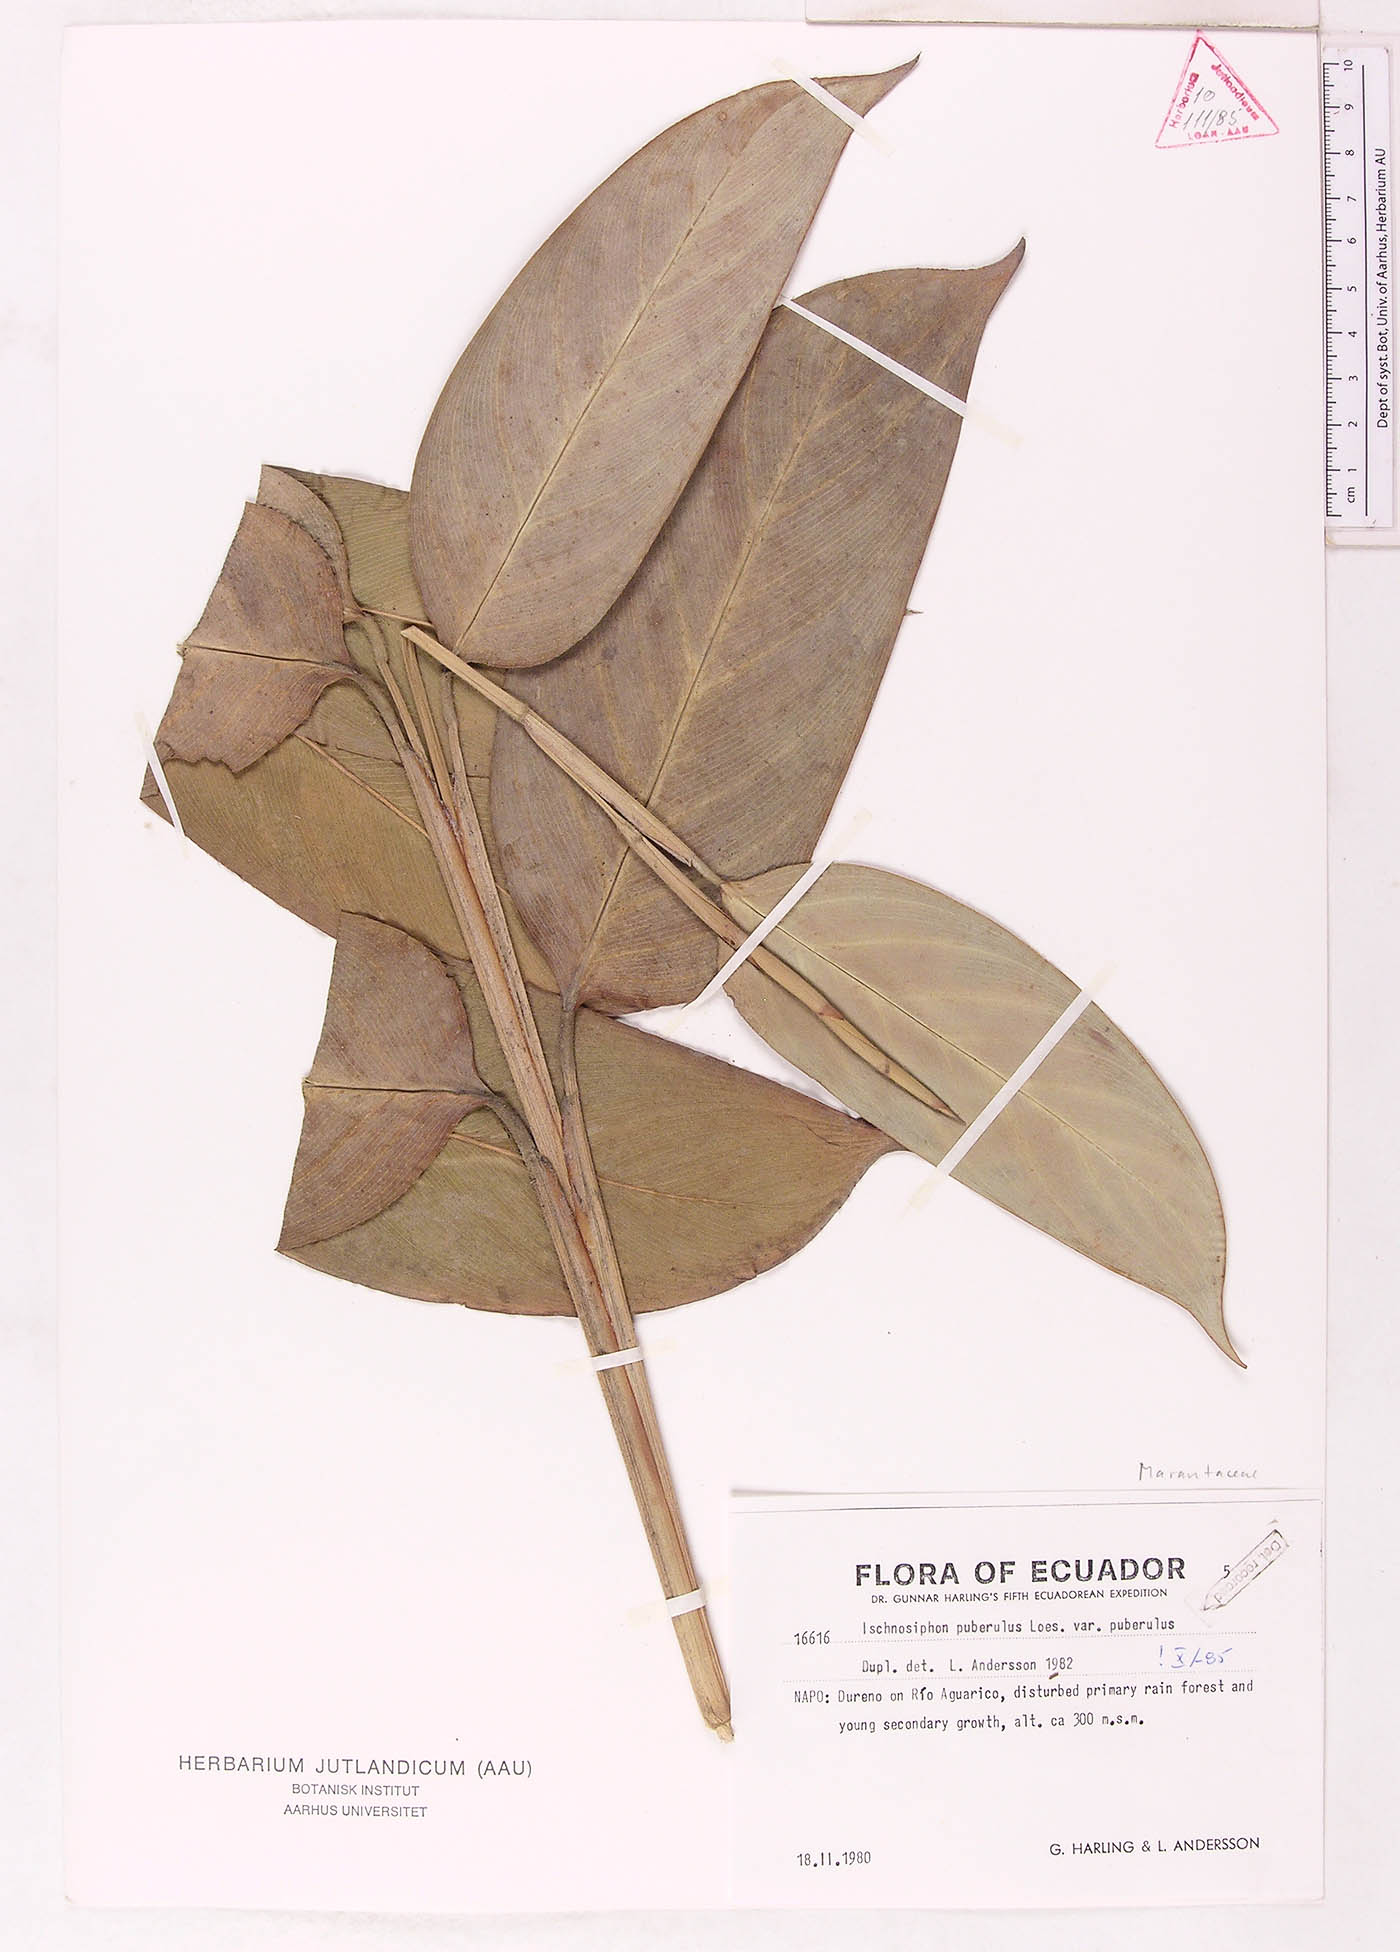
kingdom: Plantae
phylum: Tracheophyta
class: Liliopsida
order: Zingiberales
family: Marantaceae
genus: Ischnosiphon
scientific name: Ischnosiphon puberulus
